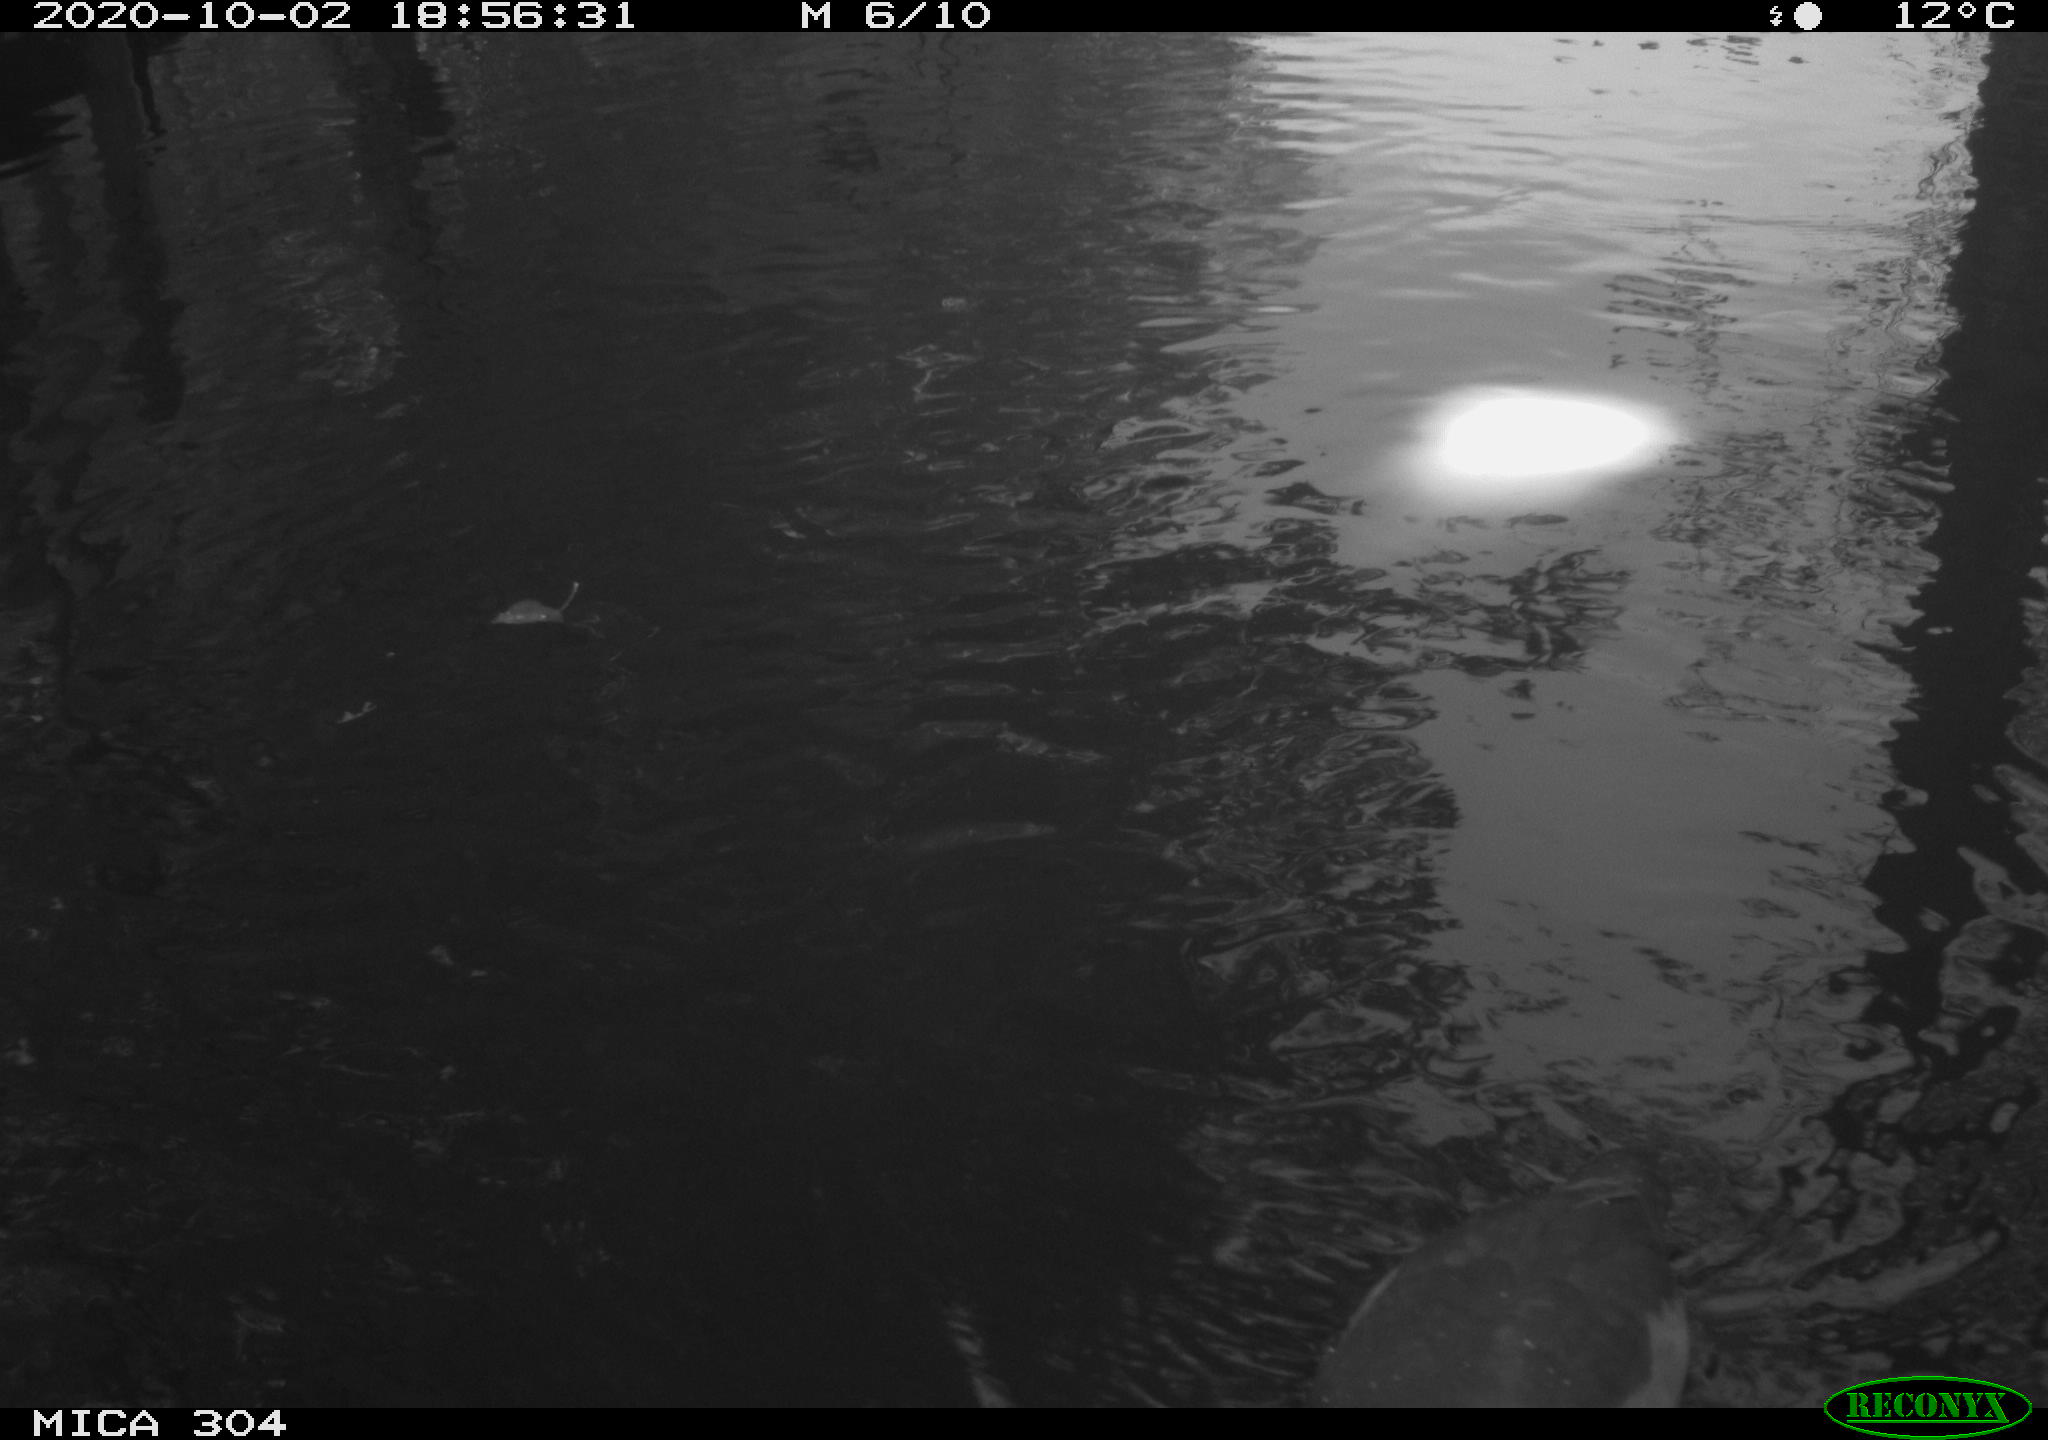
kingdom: Animalia
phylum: Chordata
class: Aves
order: Gruiformes
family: Rallidae
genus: Gallinula
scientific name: Gallinula chloropus
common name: Common moorhen
